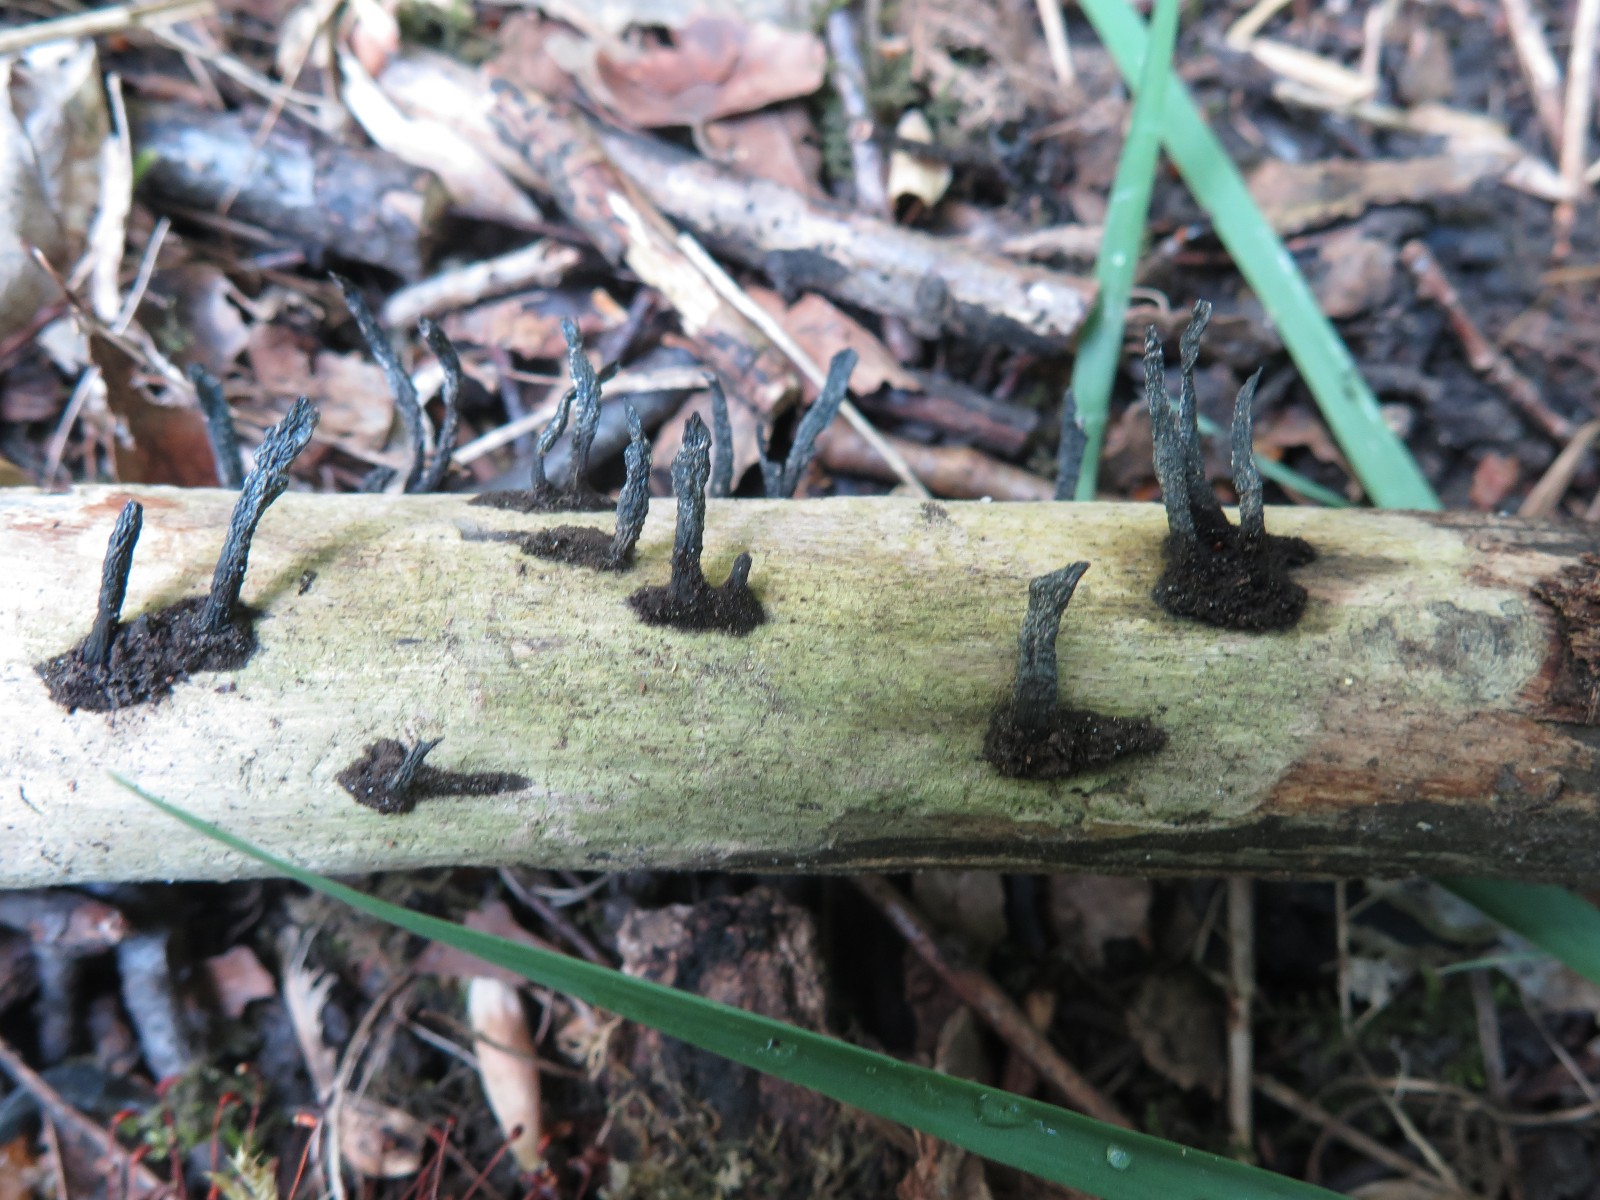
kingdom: Fungi
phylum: Ascomycota
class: Sordariomycetes
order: Xylariales
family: Xylariaceae
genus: Xylaria
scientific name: Xylaria longipes
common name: slank stødsvamp
